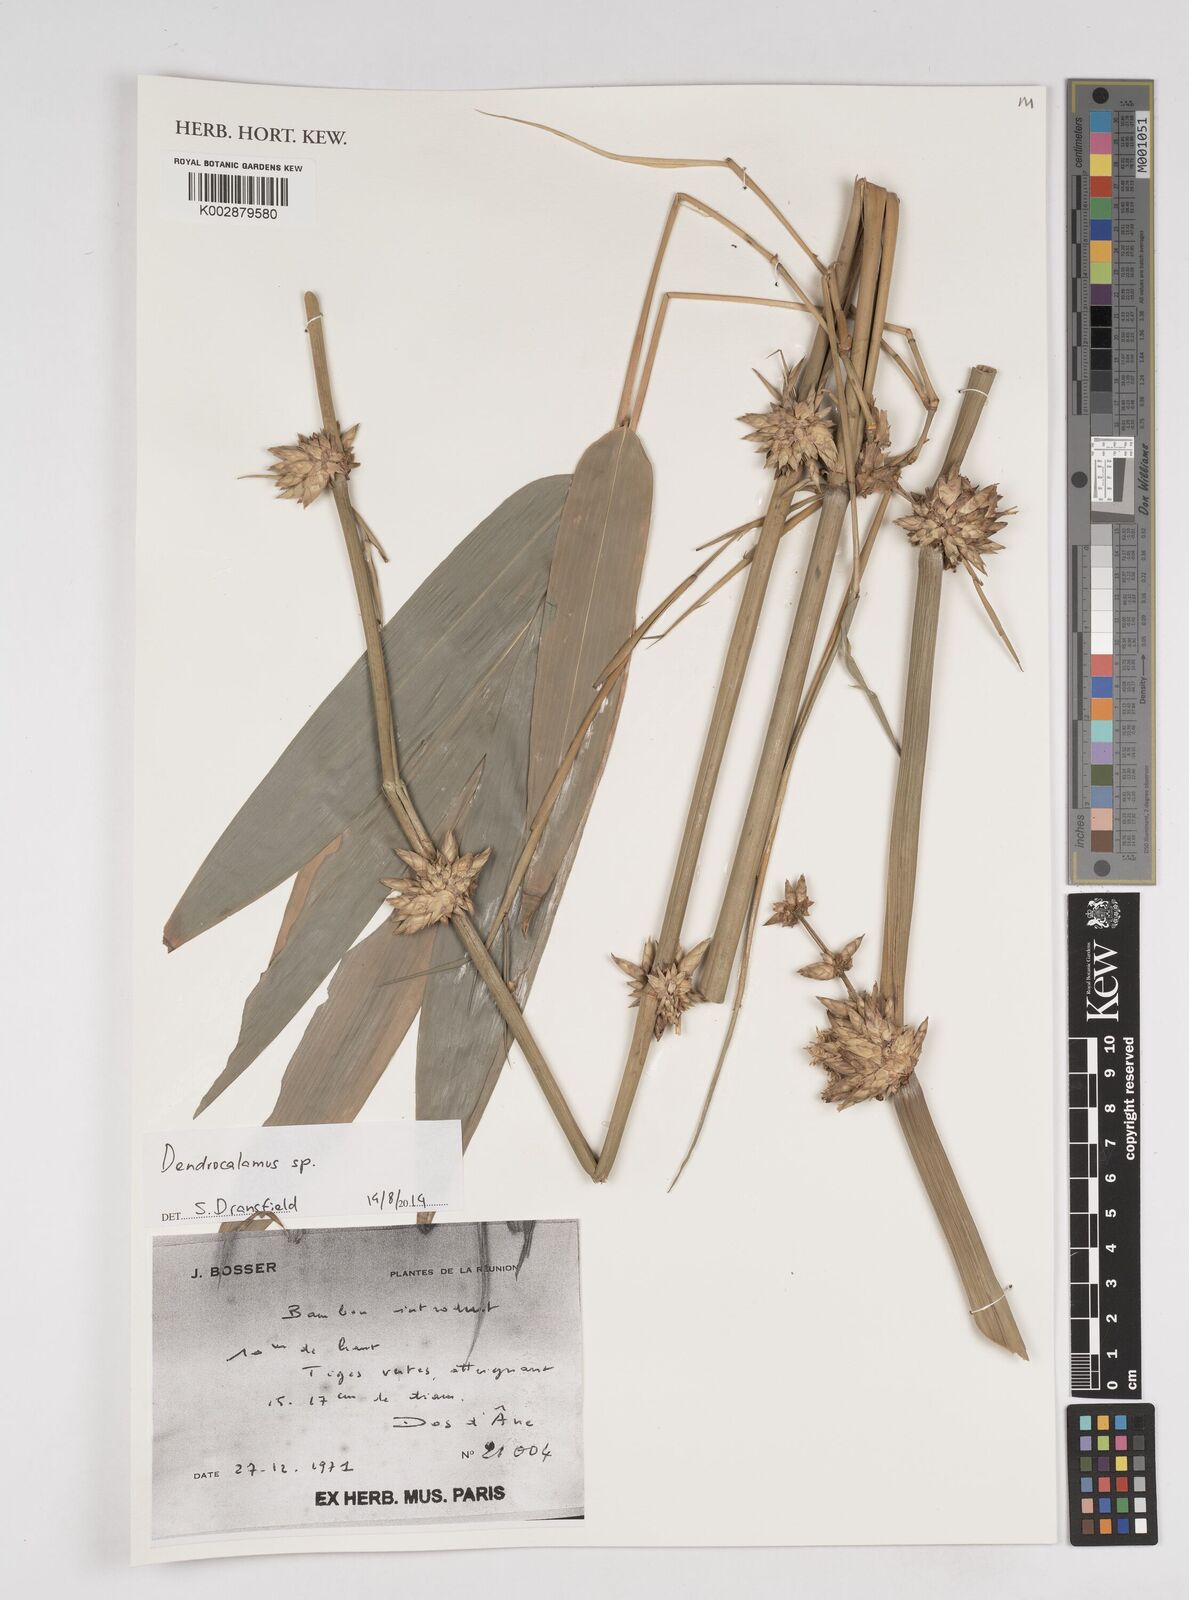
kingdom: Plantae
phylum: Tracheophyta
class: Liliopsida
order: Poales
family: Poaceae
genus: Dendrocalamus
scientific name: Dendrocalamus
